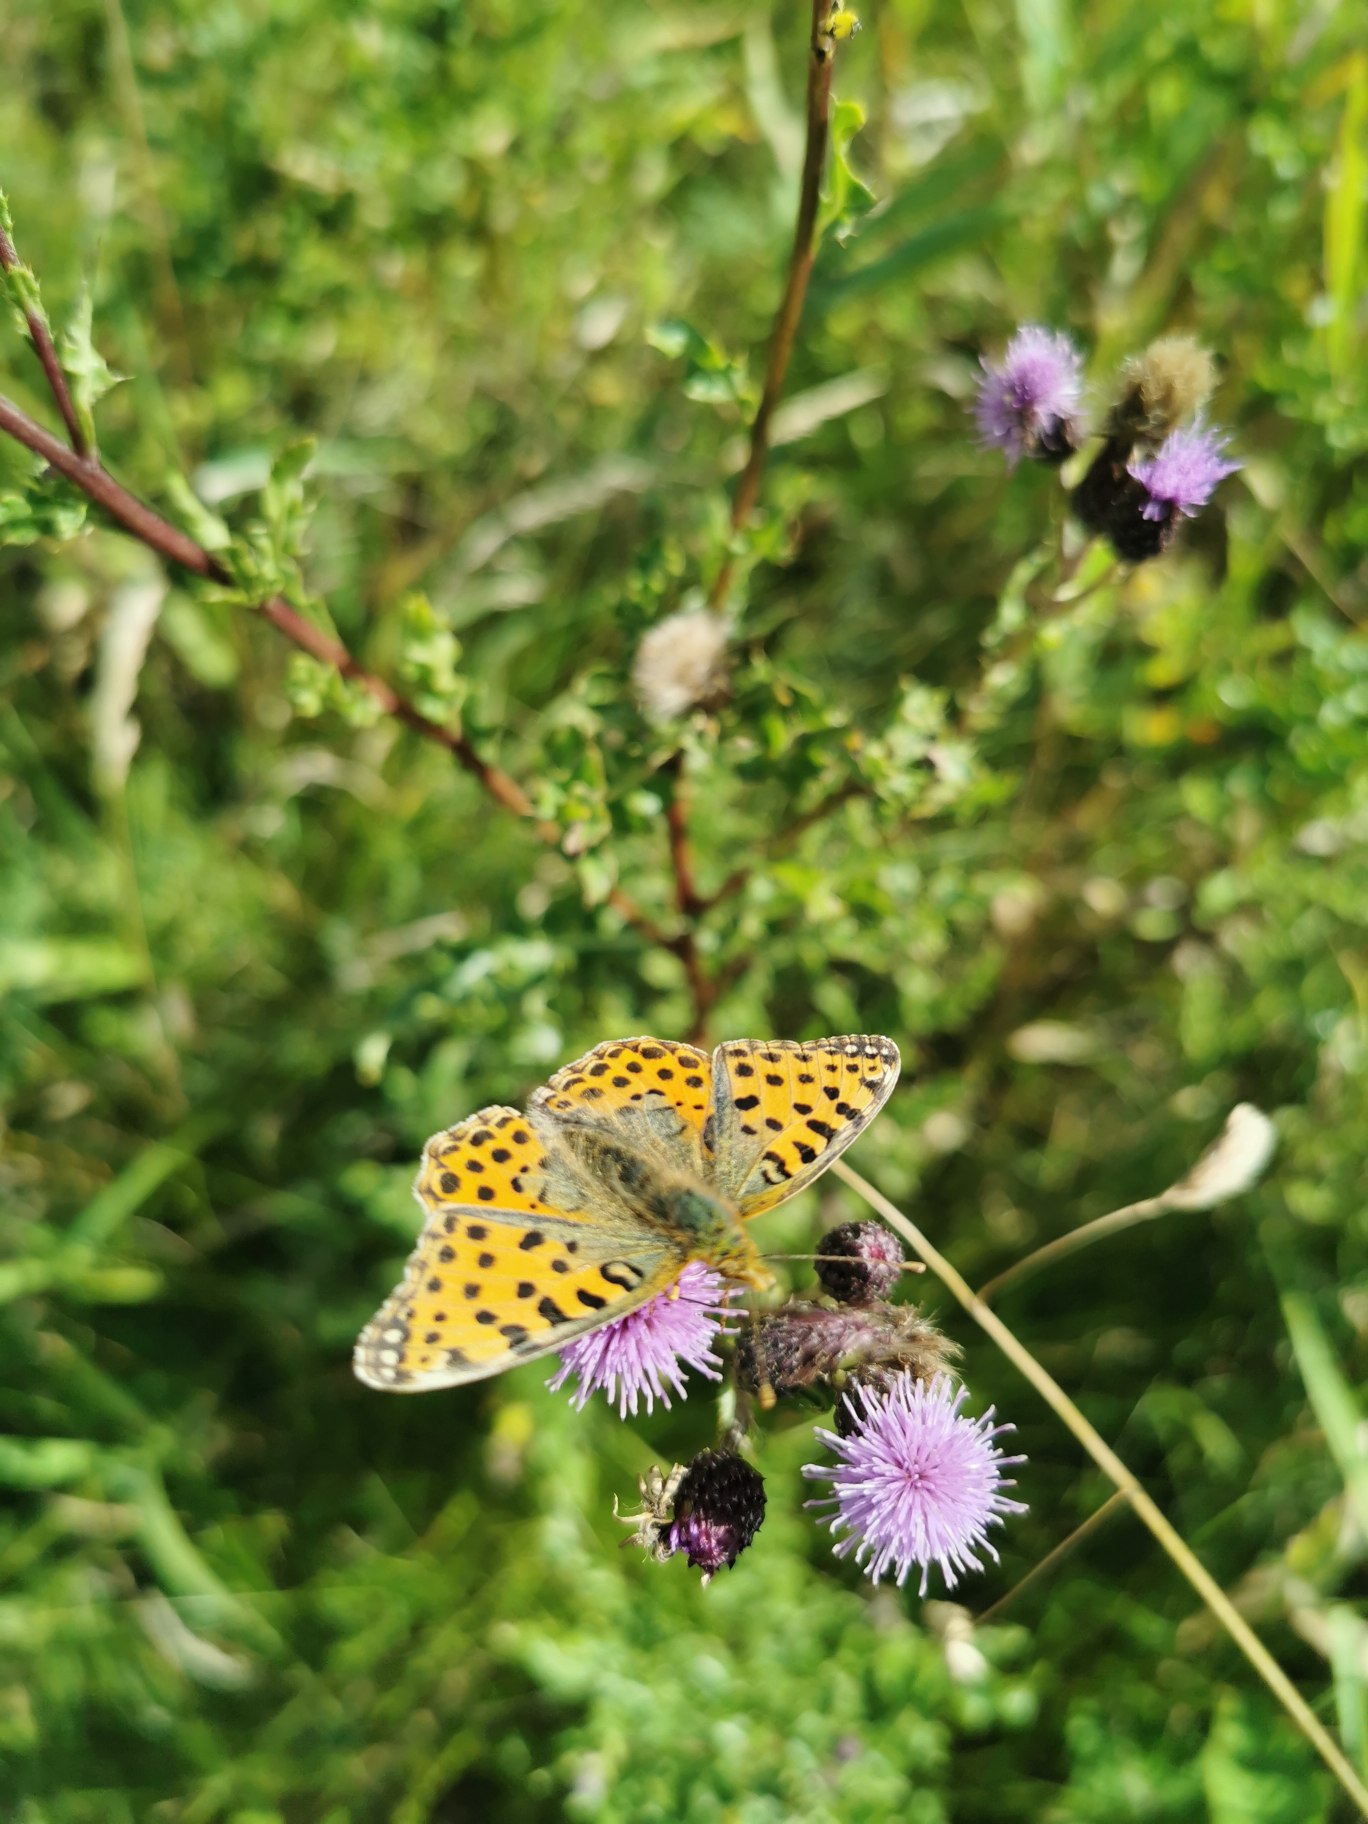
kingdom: Animalia
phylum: Arthropoda
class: Insecta
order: Lepidoptera
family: Nymphalidae
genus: Issoria
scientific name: Issoria lathonia
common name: Storplettet perlemorsommerfugl
